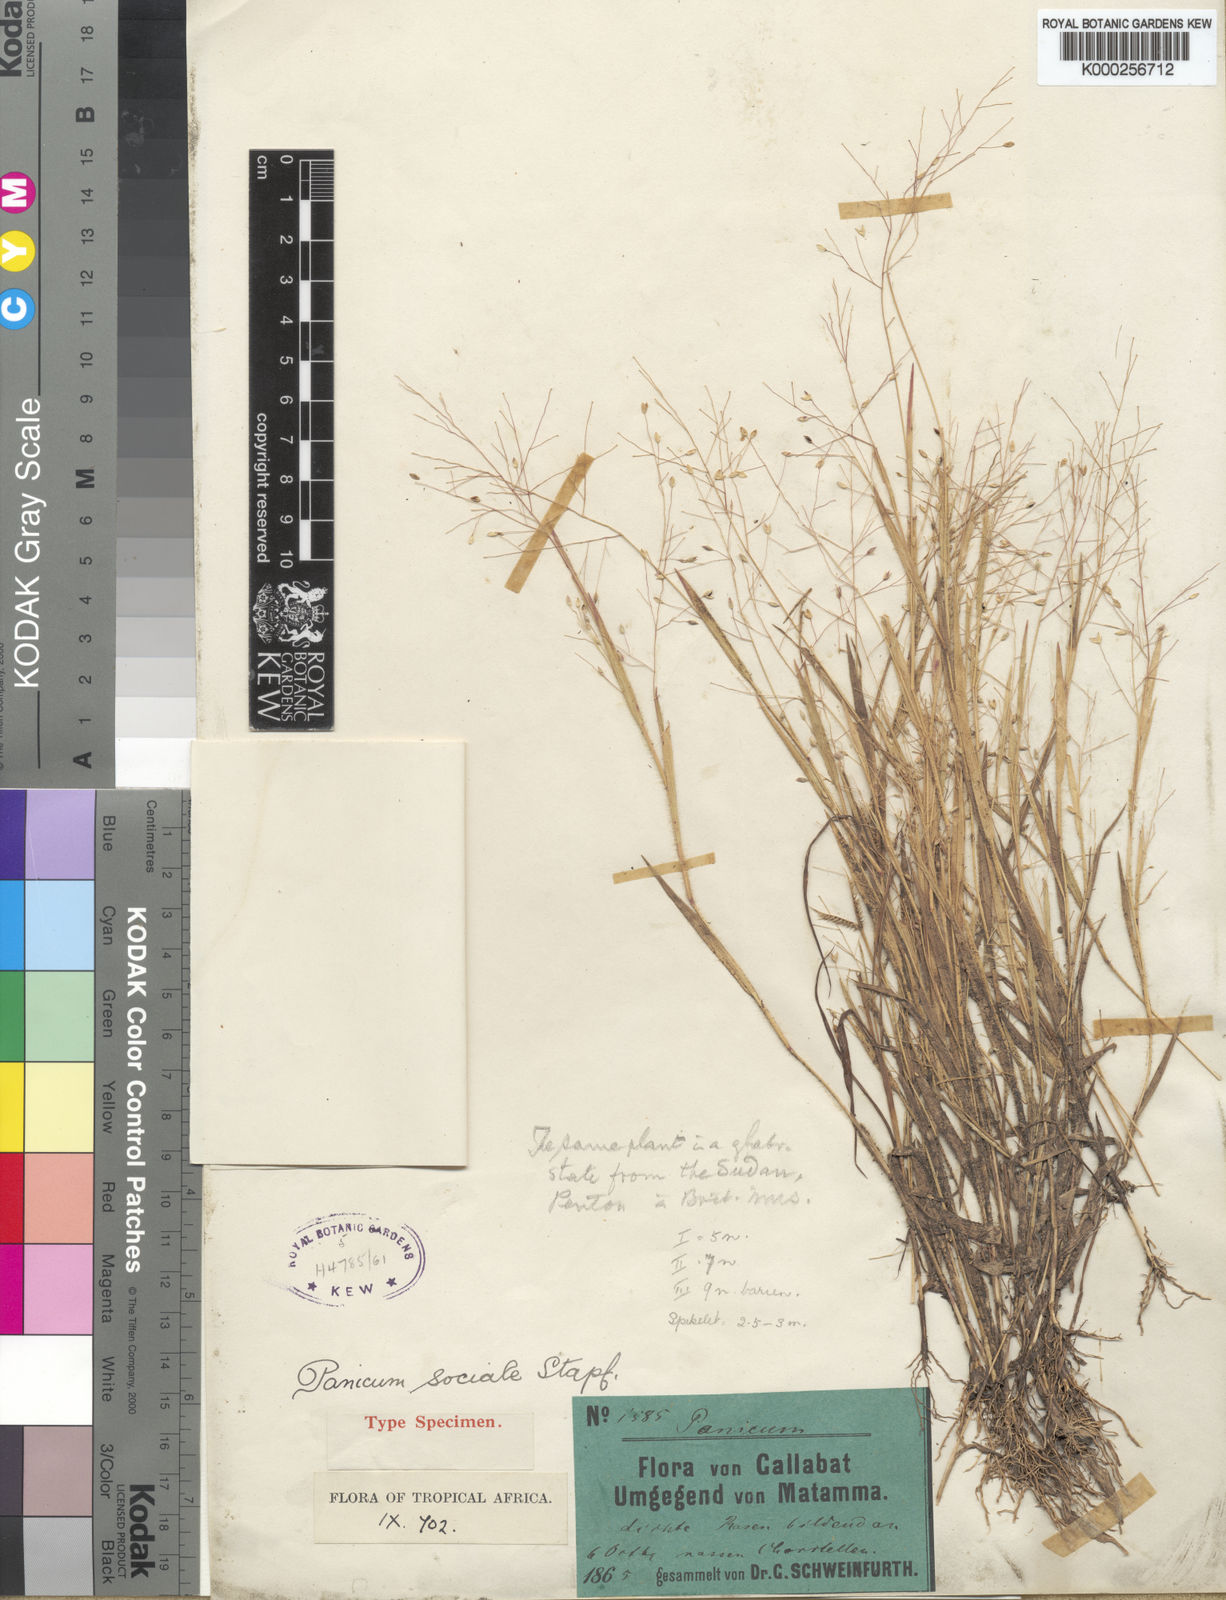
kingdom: Plantae
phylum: Tracheophyta
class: Liliopsida
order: Poales
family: Poaceae
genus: Panicum
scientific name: Panicum atrosanguineum
